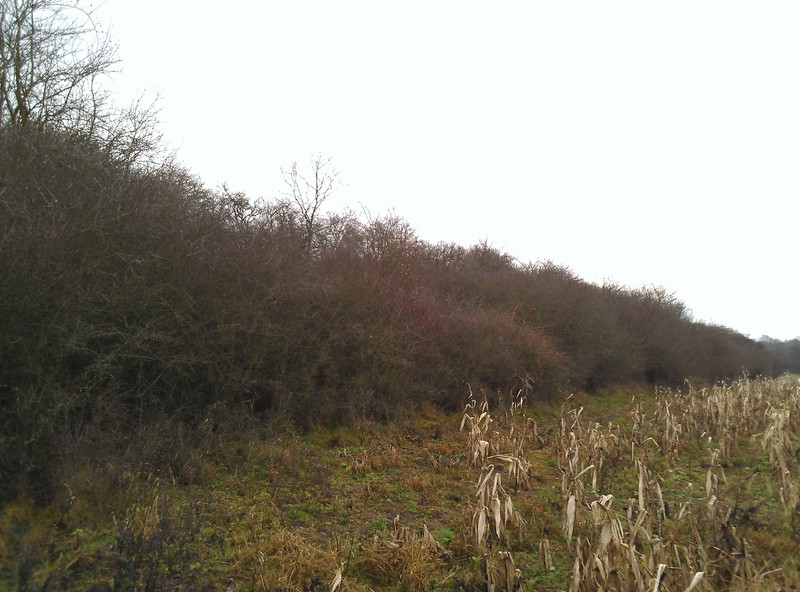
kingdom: Fungi
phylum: Ascomycota
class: Lecanoromycetes
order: Lecanorales
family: Parmeliaceae
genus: Hypogymnia
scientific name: Hypogymnia tubulosa
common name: Powder-headed tube lichen
